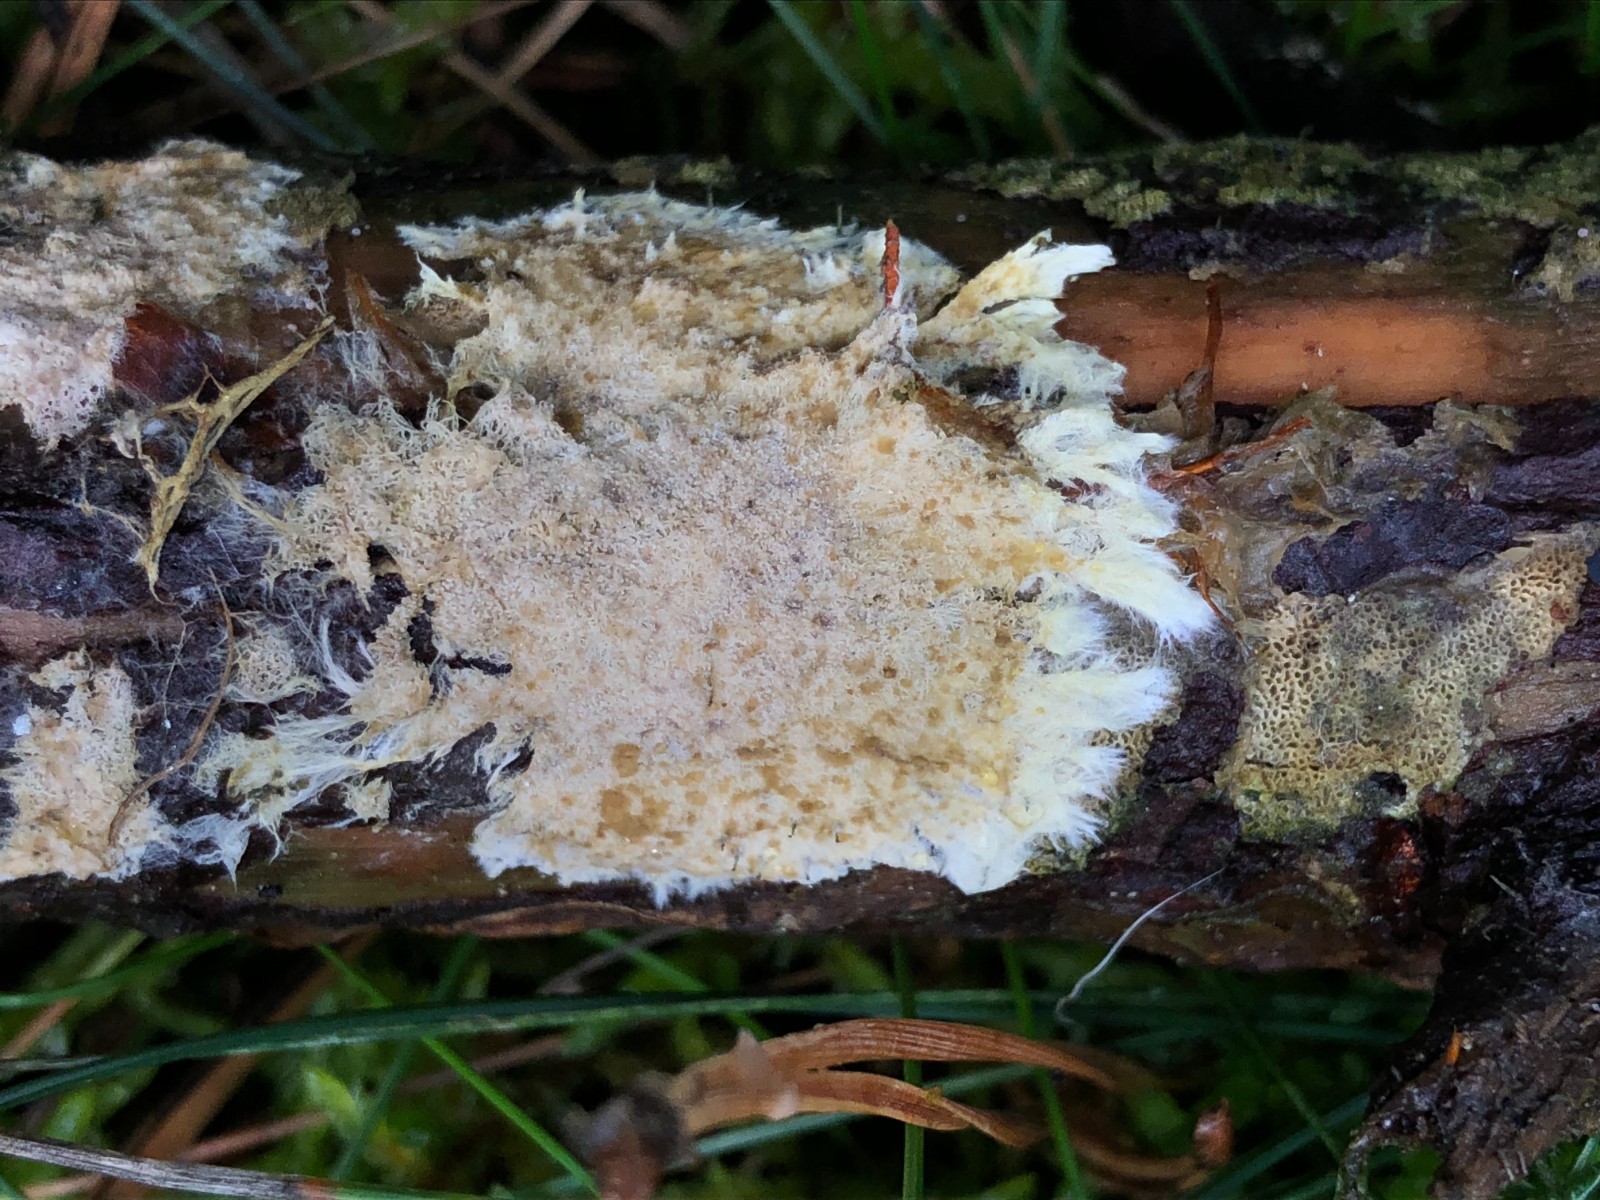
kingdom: Fungi
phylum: Basidiomycota
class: Agaricomycetes
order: Russulales
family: Xenasmataceae
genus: Xenasmatella
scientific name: Xenasmatella vaga
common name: svovl-strenghinde
